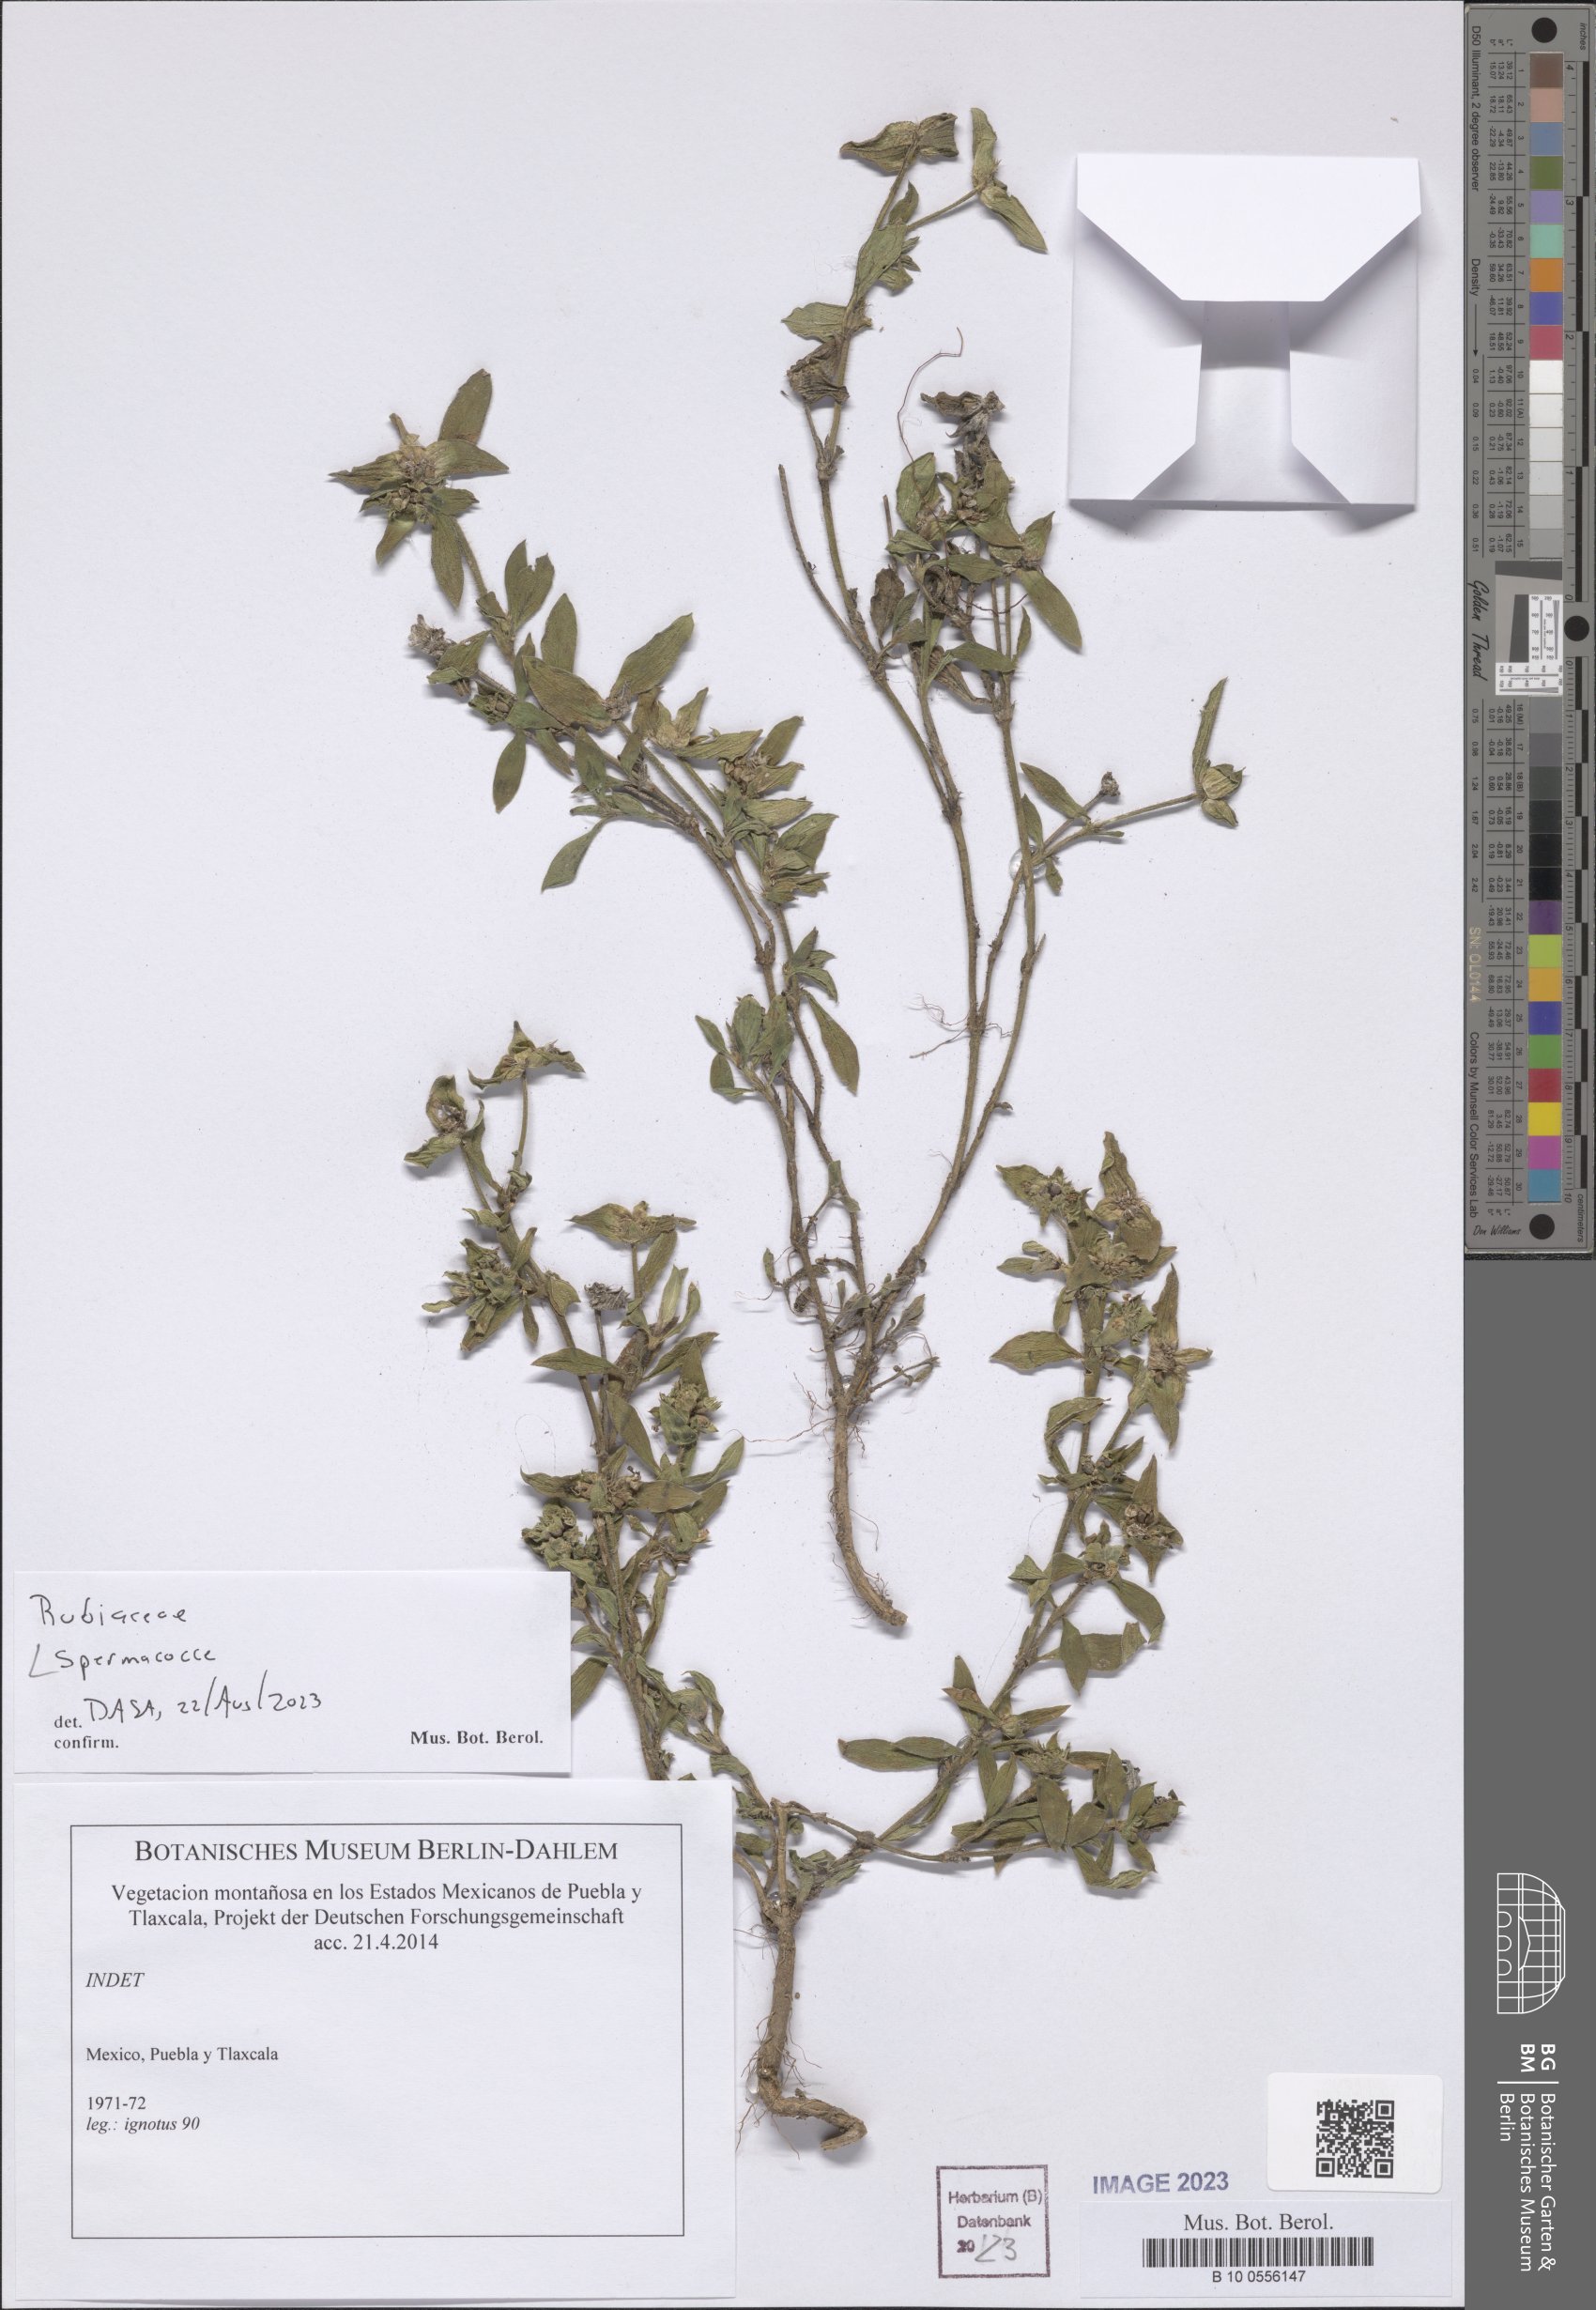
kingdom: Plantae
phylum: Tracheophyta
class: Magnoliopsida
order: Gentianales
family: Rubiaceae
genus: Spermacoce
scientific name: Spermacoce
